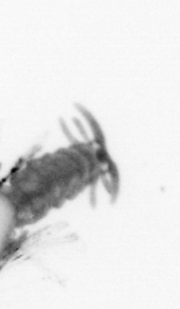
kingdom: Animalia
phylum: Annelida
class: Polychaeta
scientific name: Polychaeta
